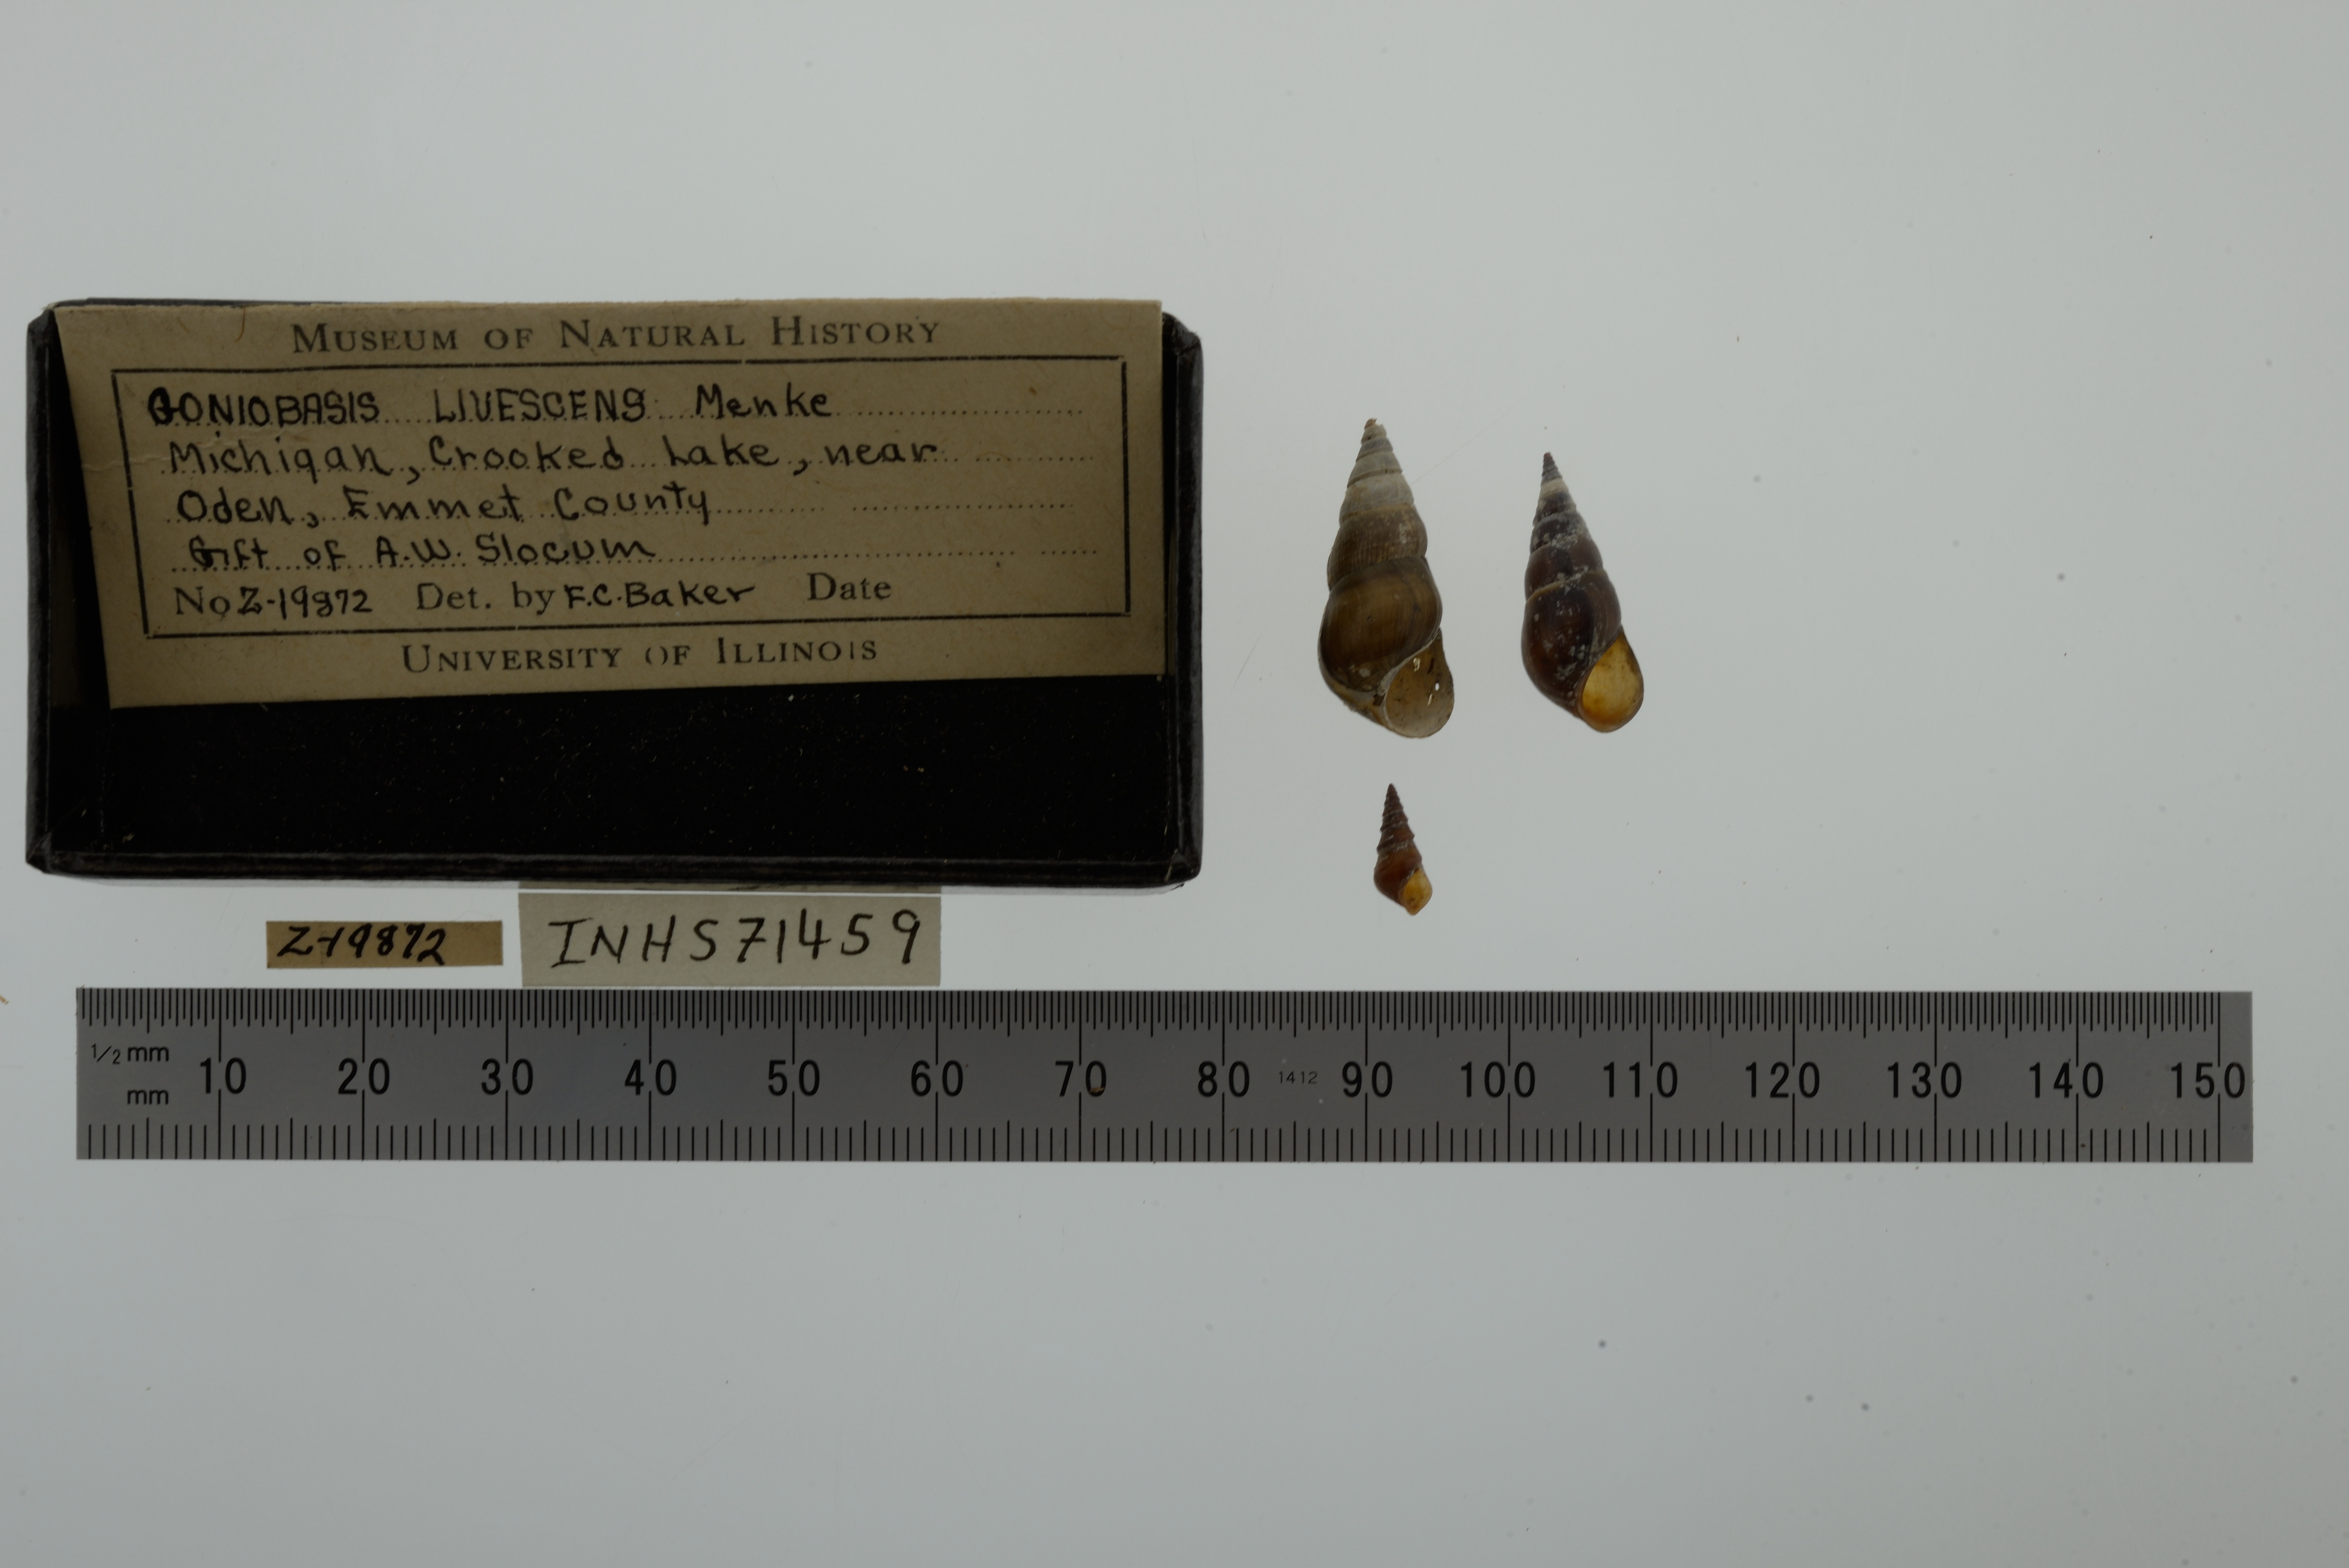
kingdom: Animalia
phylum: Mollusca
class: Gastropoda
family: Pleuroceridae
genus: Elimia
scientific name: Elimia livescens
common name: Liver elimia
